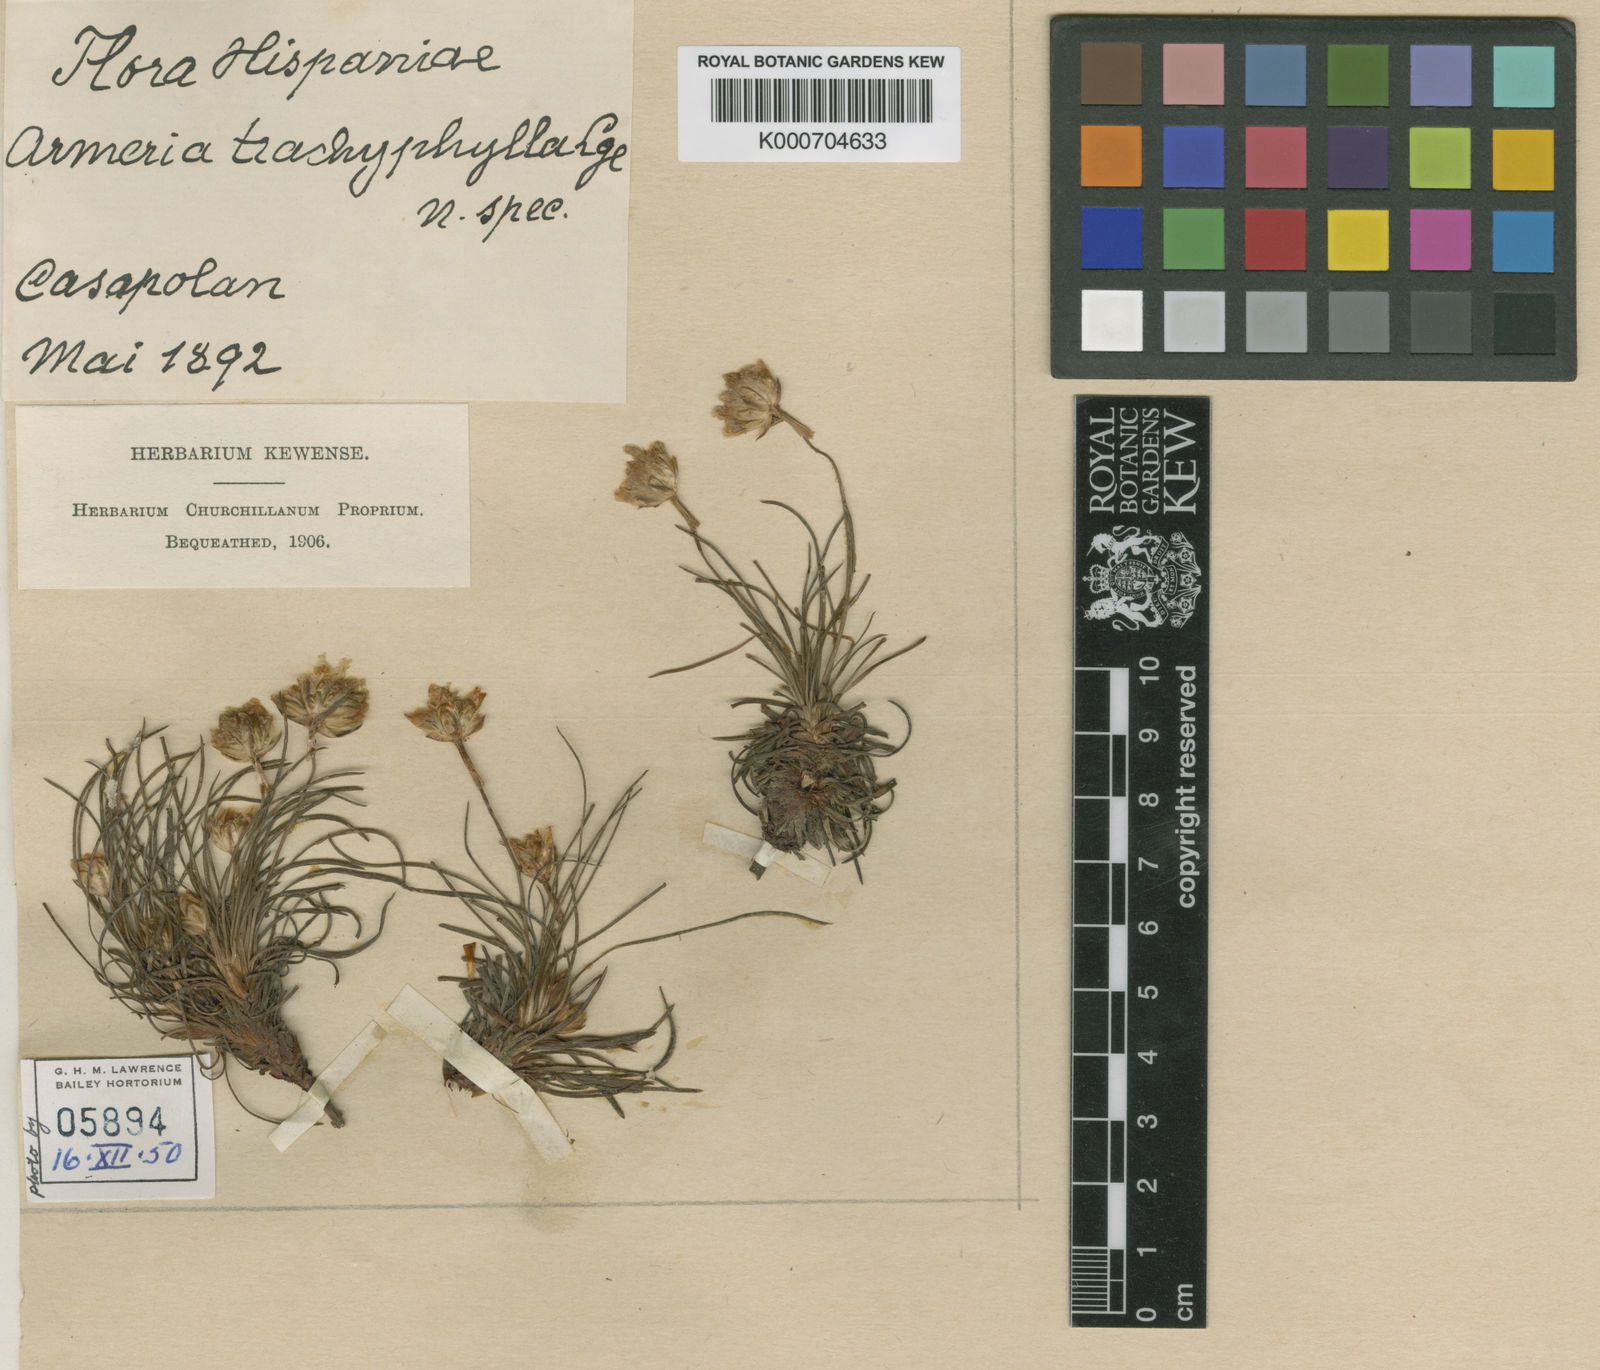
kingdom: Plantae
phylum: Tracheophyta
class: Magnoliopsida
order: Caryophyllales
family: Plumbaginaceae
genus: Armeria
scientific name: Armeria trachyphylla
